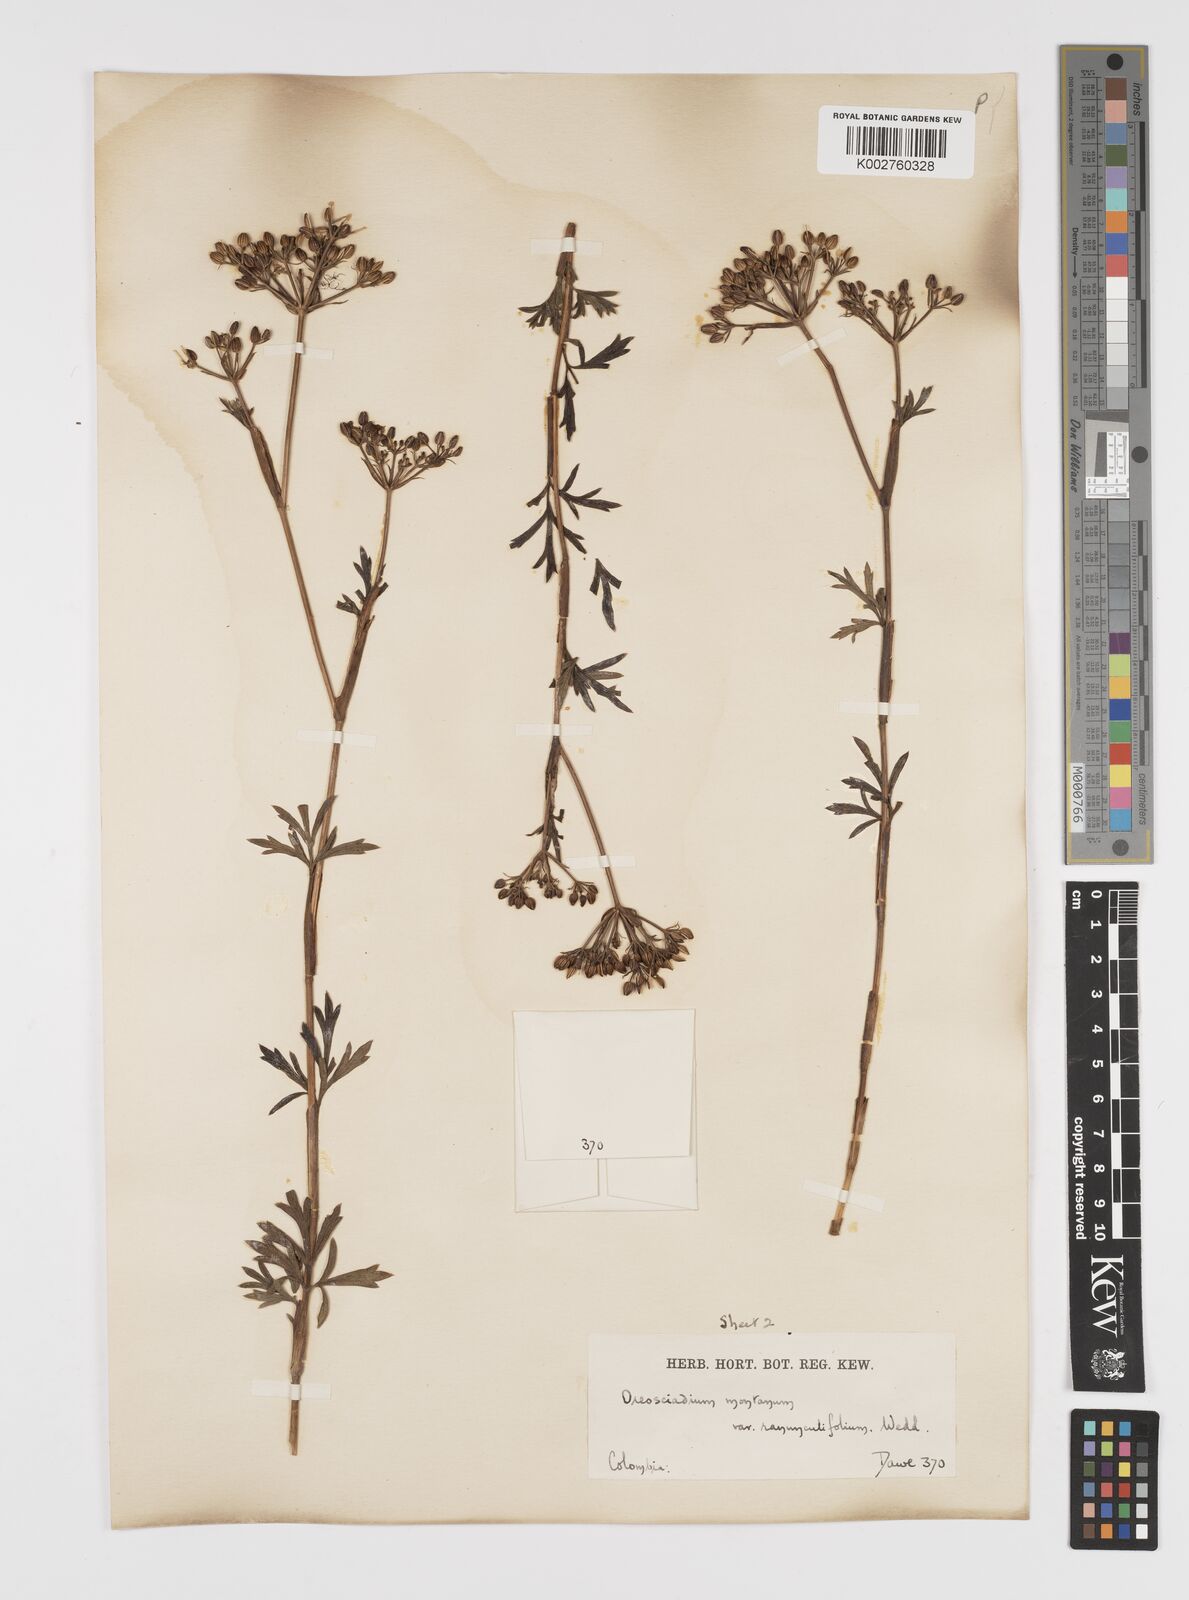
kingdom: Plantae
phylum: Tracheophyta
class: Magnoliopsida
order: Apiales
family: Apiaceae
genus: Niphogeton
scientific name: Niphogeton ternata
